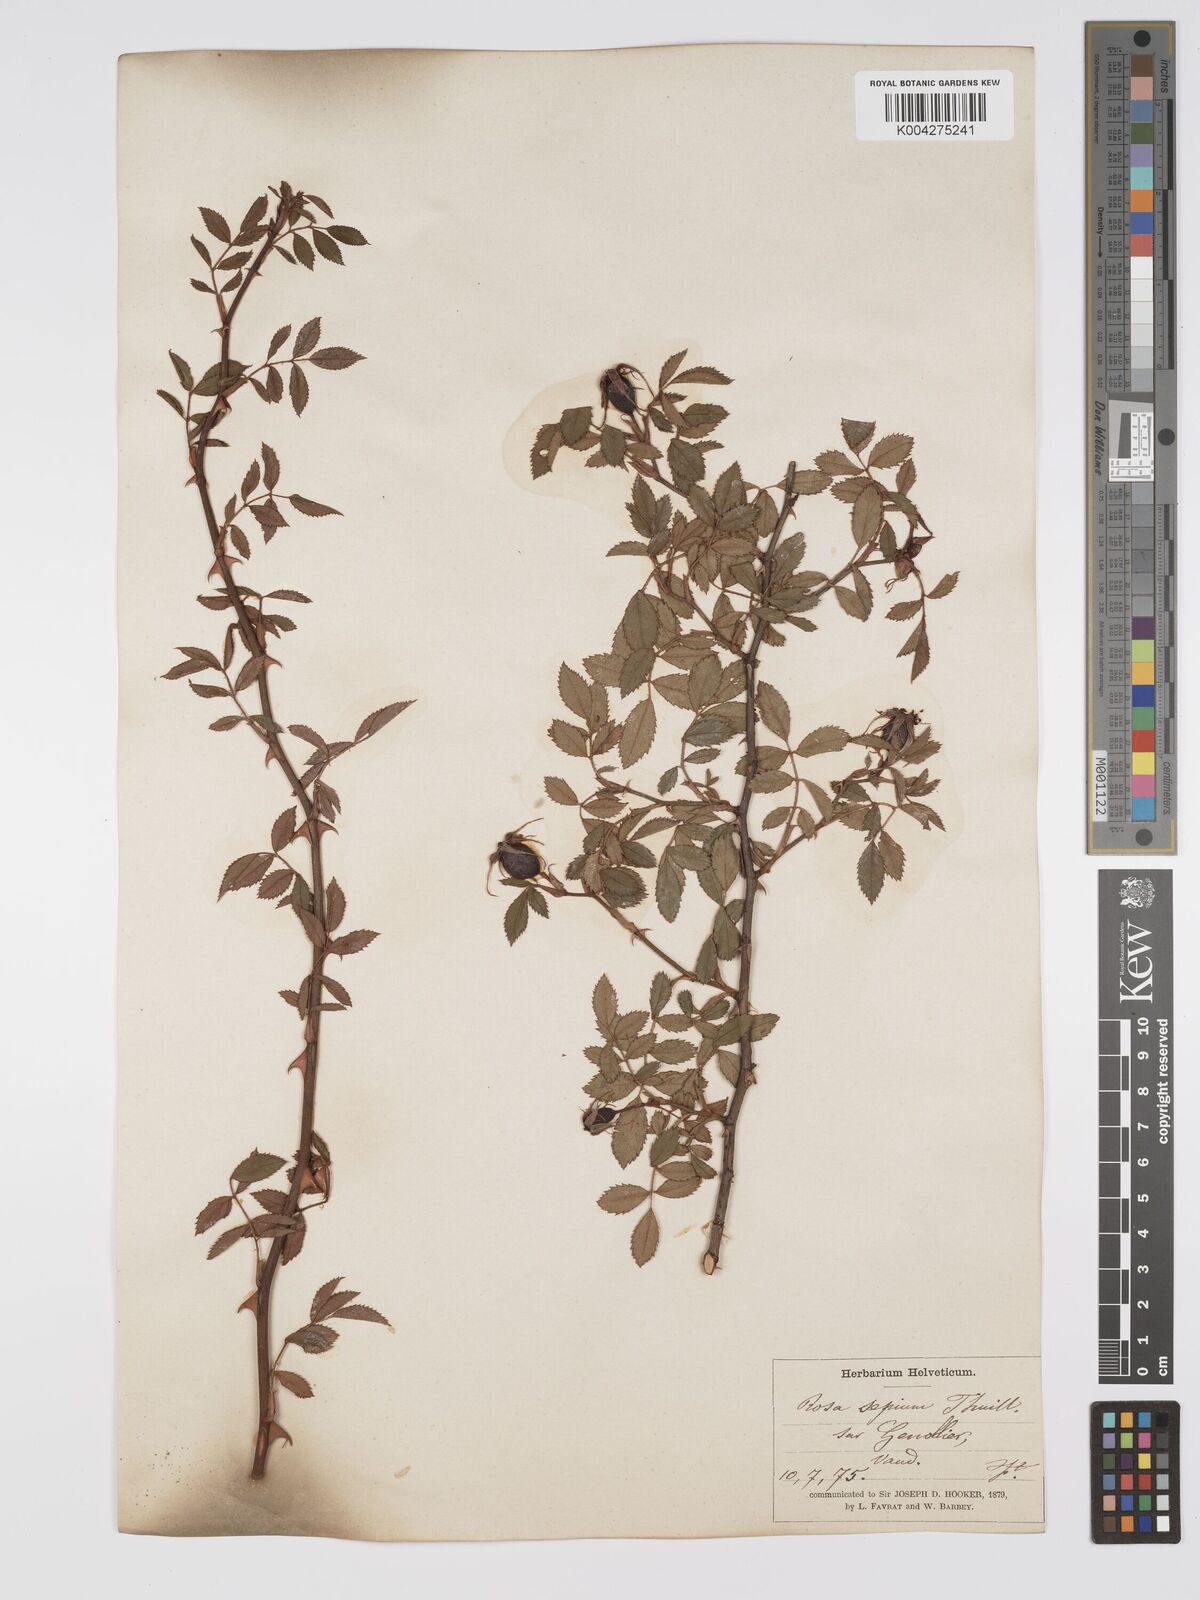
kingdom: Plantae
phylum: Tracheophyta
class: Magnoliopsida
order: Rosales
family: Rosaceae
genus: Rosa
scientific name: Rosa
